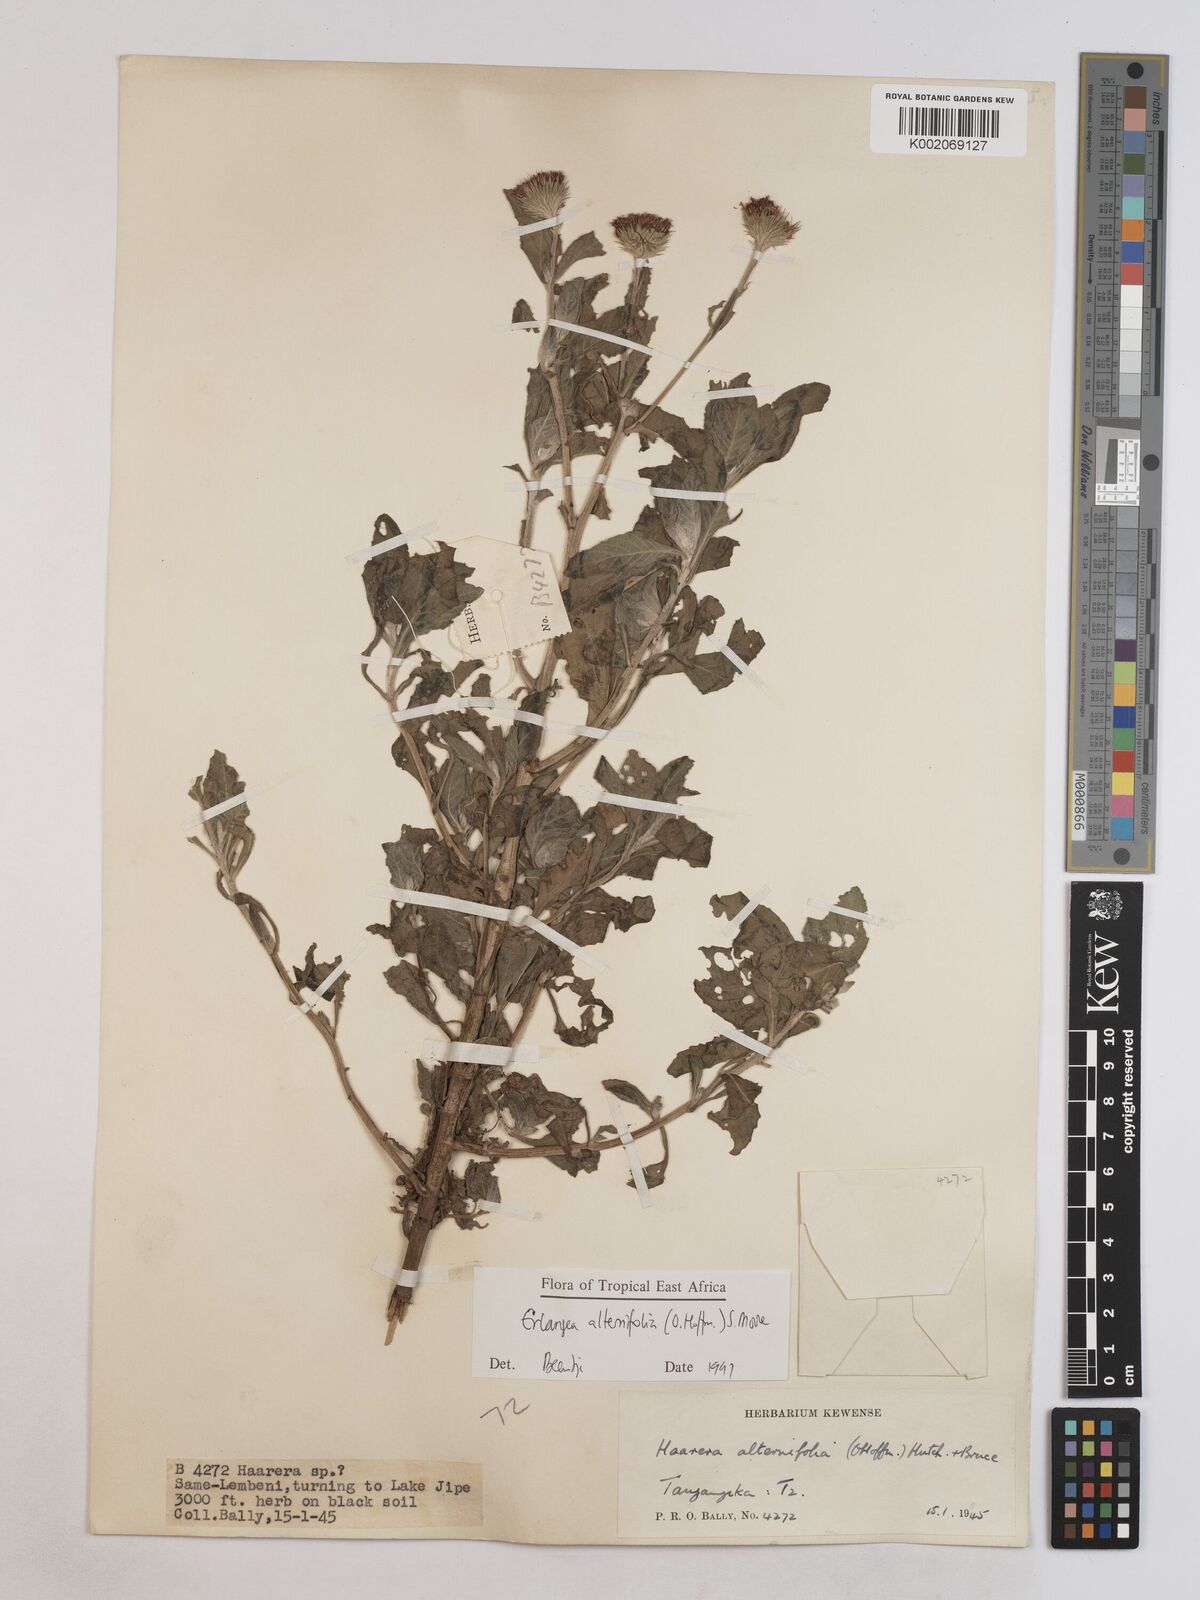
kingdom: Plantae
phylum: Tracheophyta
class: Magnoliopsida
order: Asterales
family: Asteraceae
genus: Erlangea
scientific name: Erlangea alternifolia
